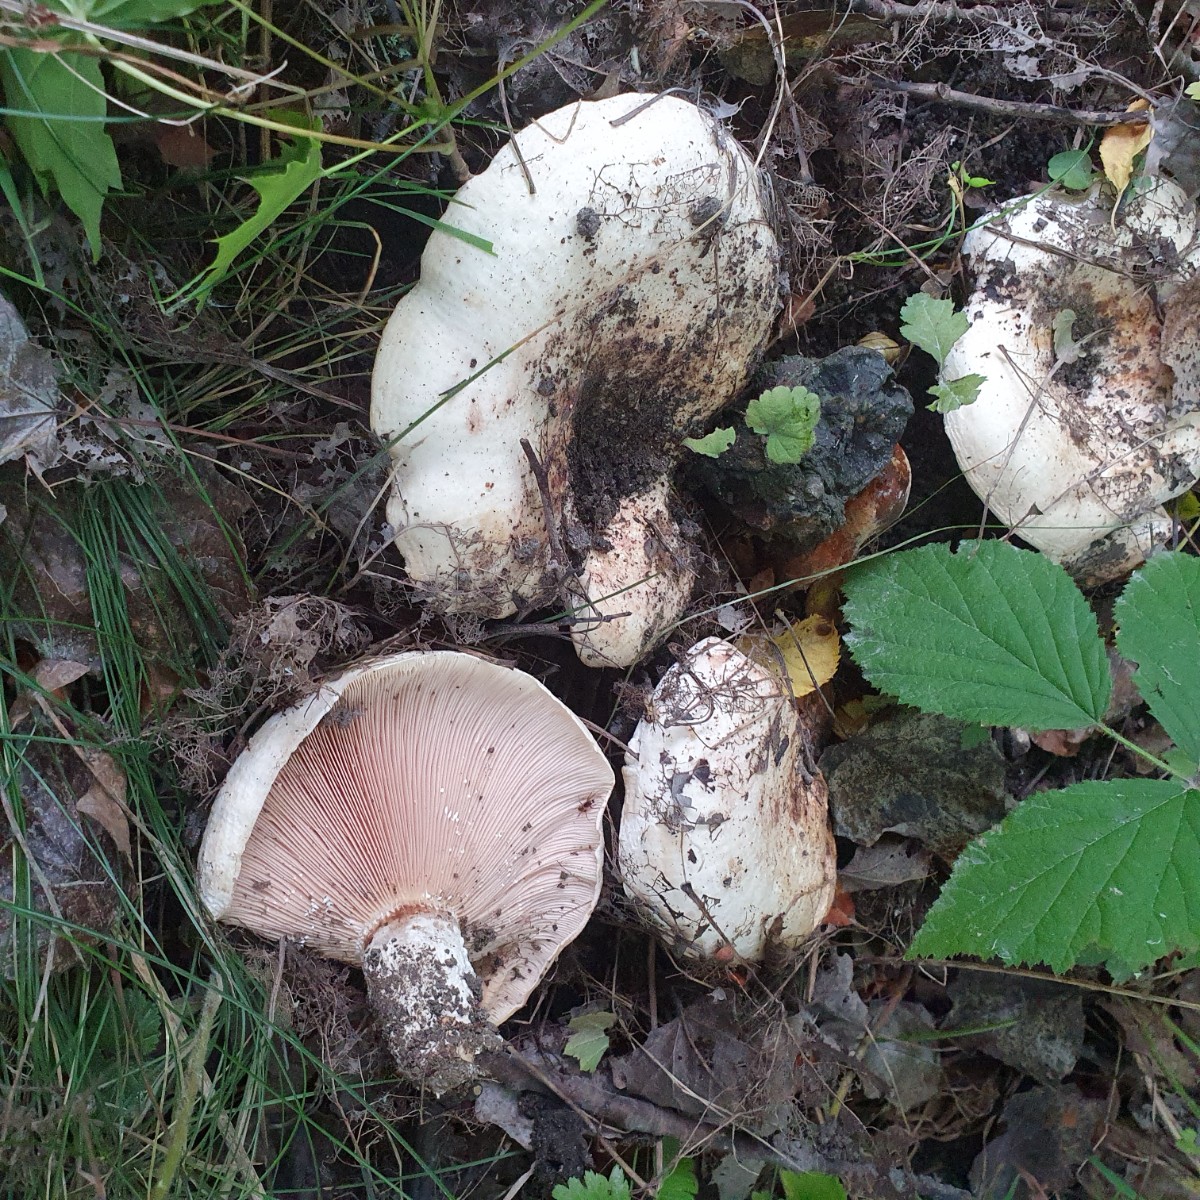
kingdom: Fungi
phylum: Basidiomycota
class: Agaricomycetes
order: Russulales
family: Russulaceae
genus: Lactarius
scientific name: Lactarius controversus
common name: rosabladet mælkehat
